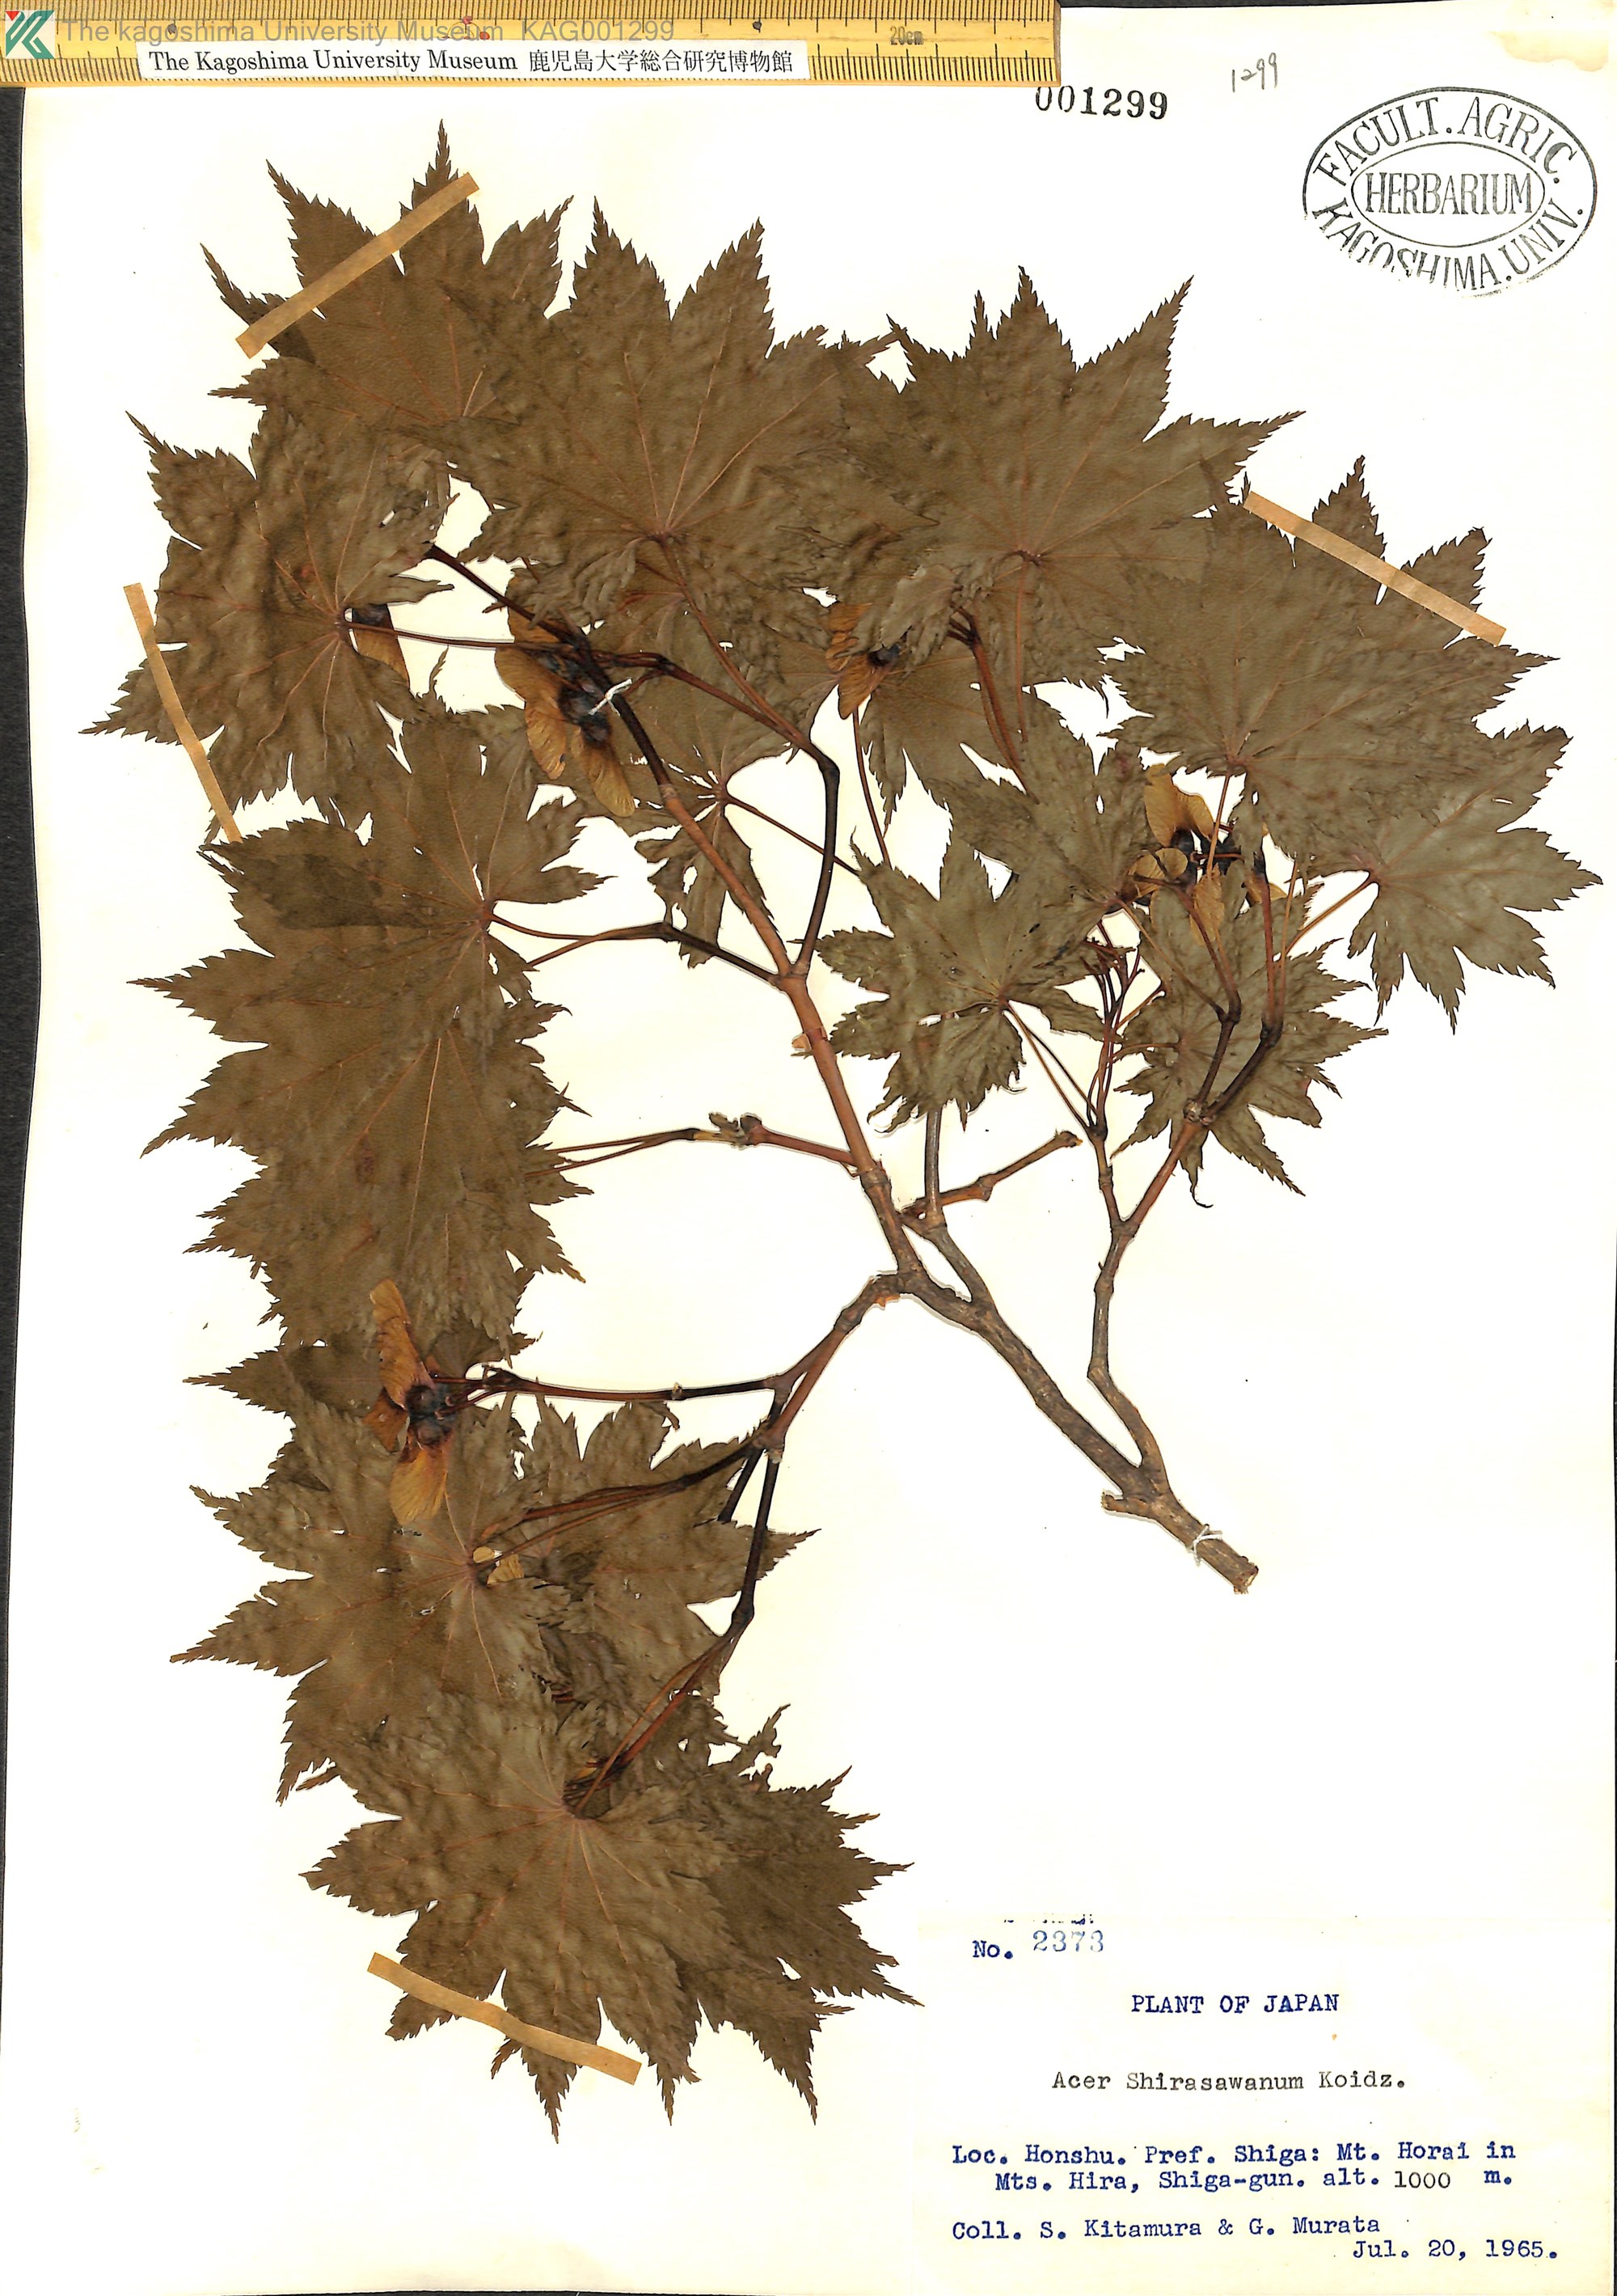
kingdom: Plantae
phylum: Tracheophyta
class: Magnoliopsida
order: Sapindales
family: Sapindaceae
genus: Acer
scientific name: Acer shirasawanum
